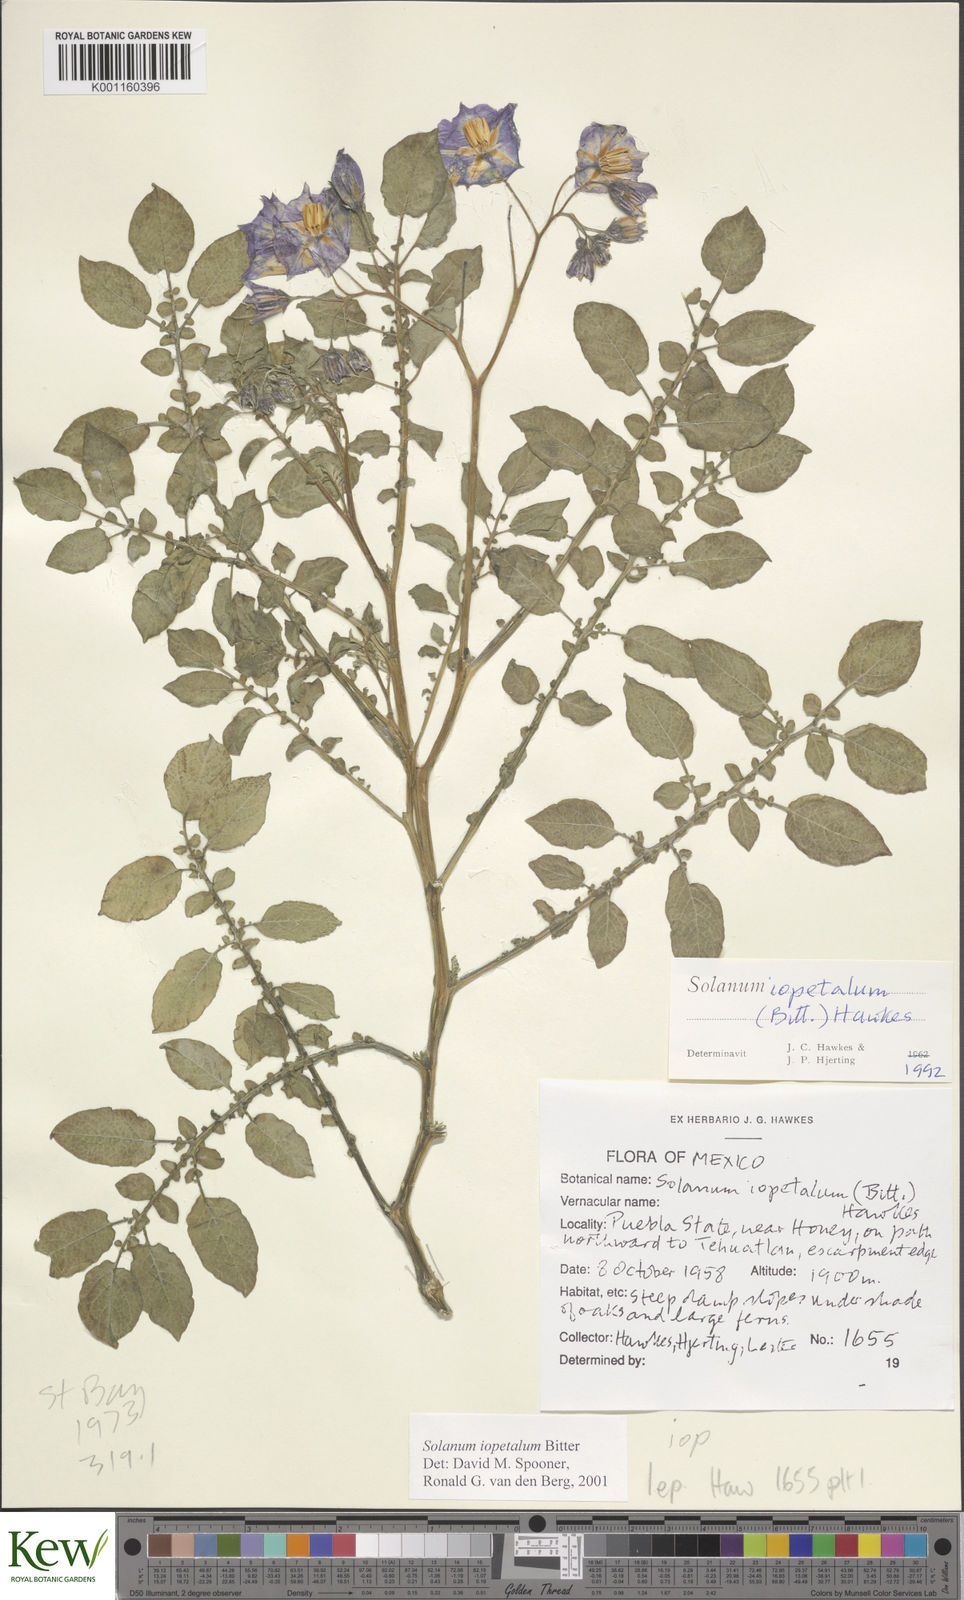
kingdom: Plantae
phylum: Tracheophyta
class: Magnoliopsida
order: Solanales
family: Solanaceae
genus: Solanum
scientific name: Solanum iopetalum
